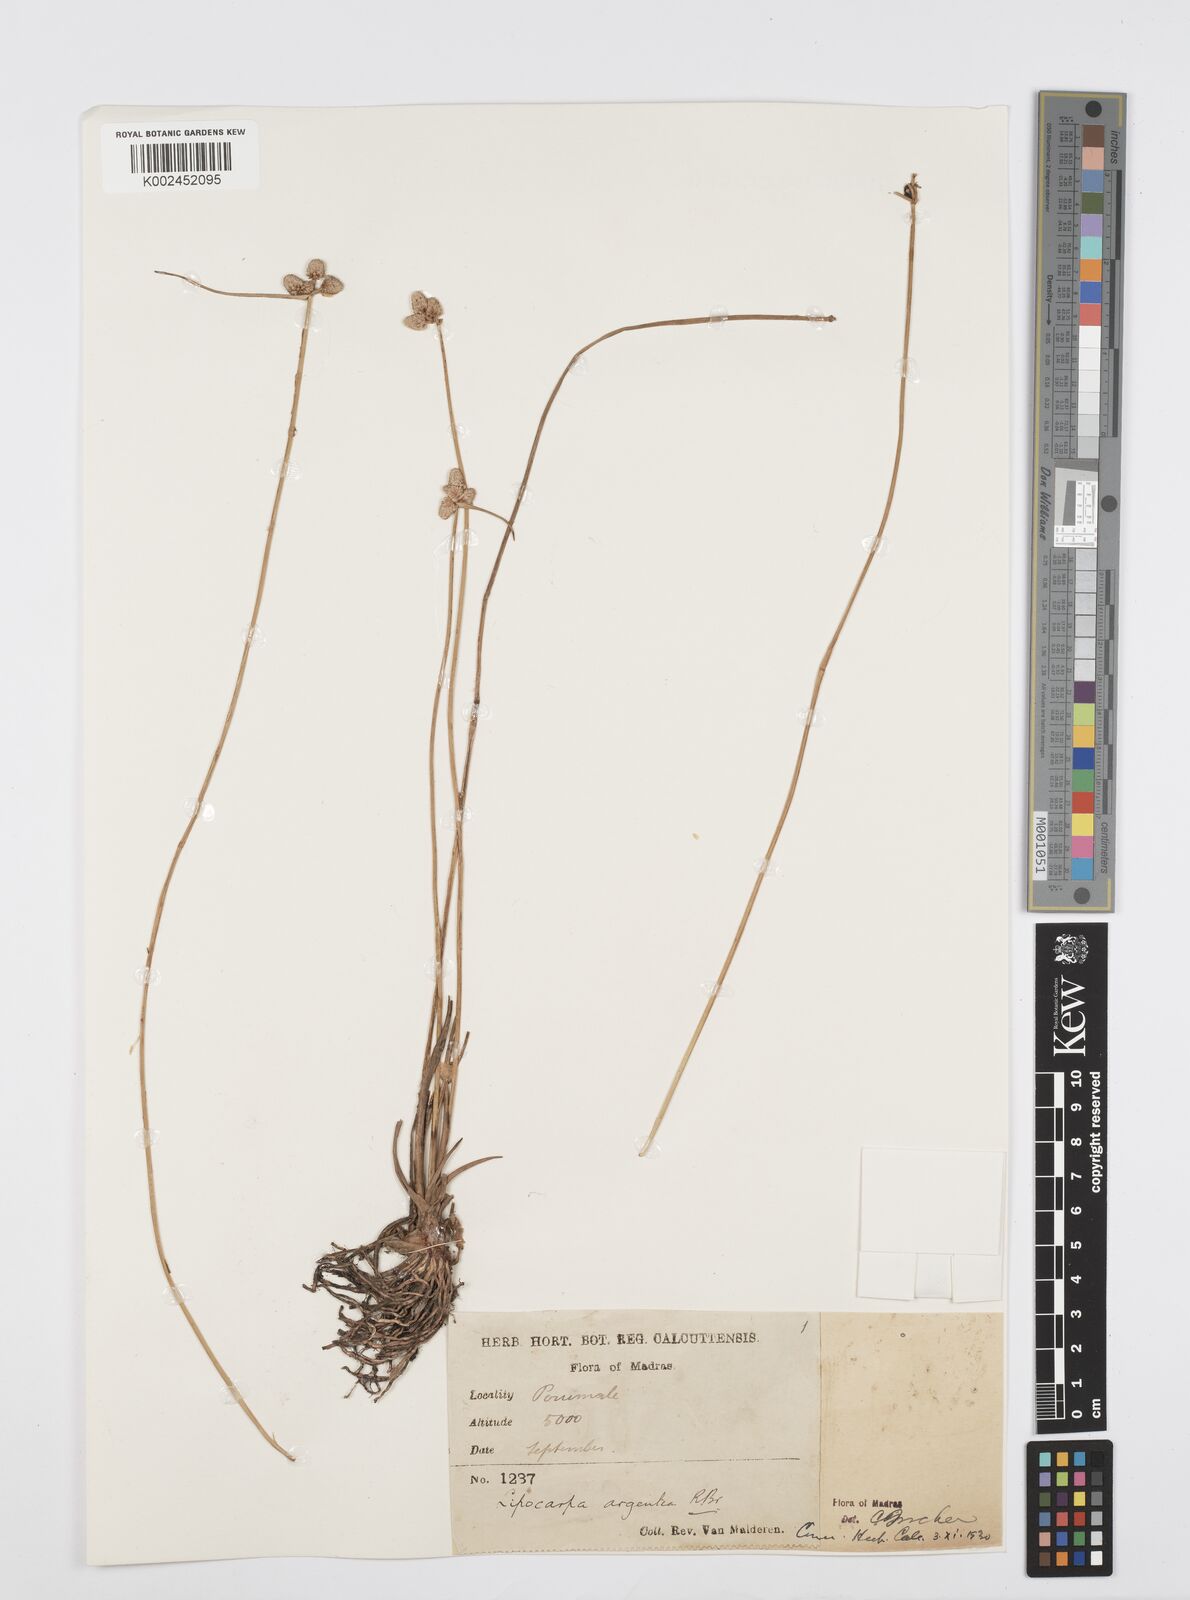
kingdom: Plantae
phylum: Tracheophyta
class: Liliopsida
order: Poales
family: Cyperaceae
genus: Cyperus
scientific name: Cyperus
